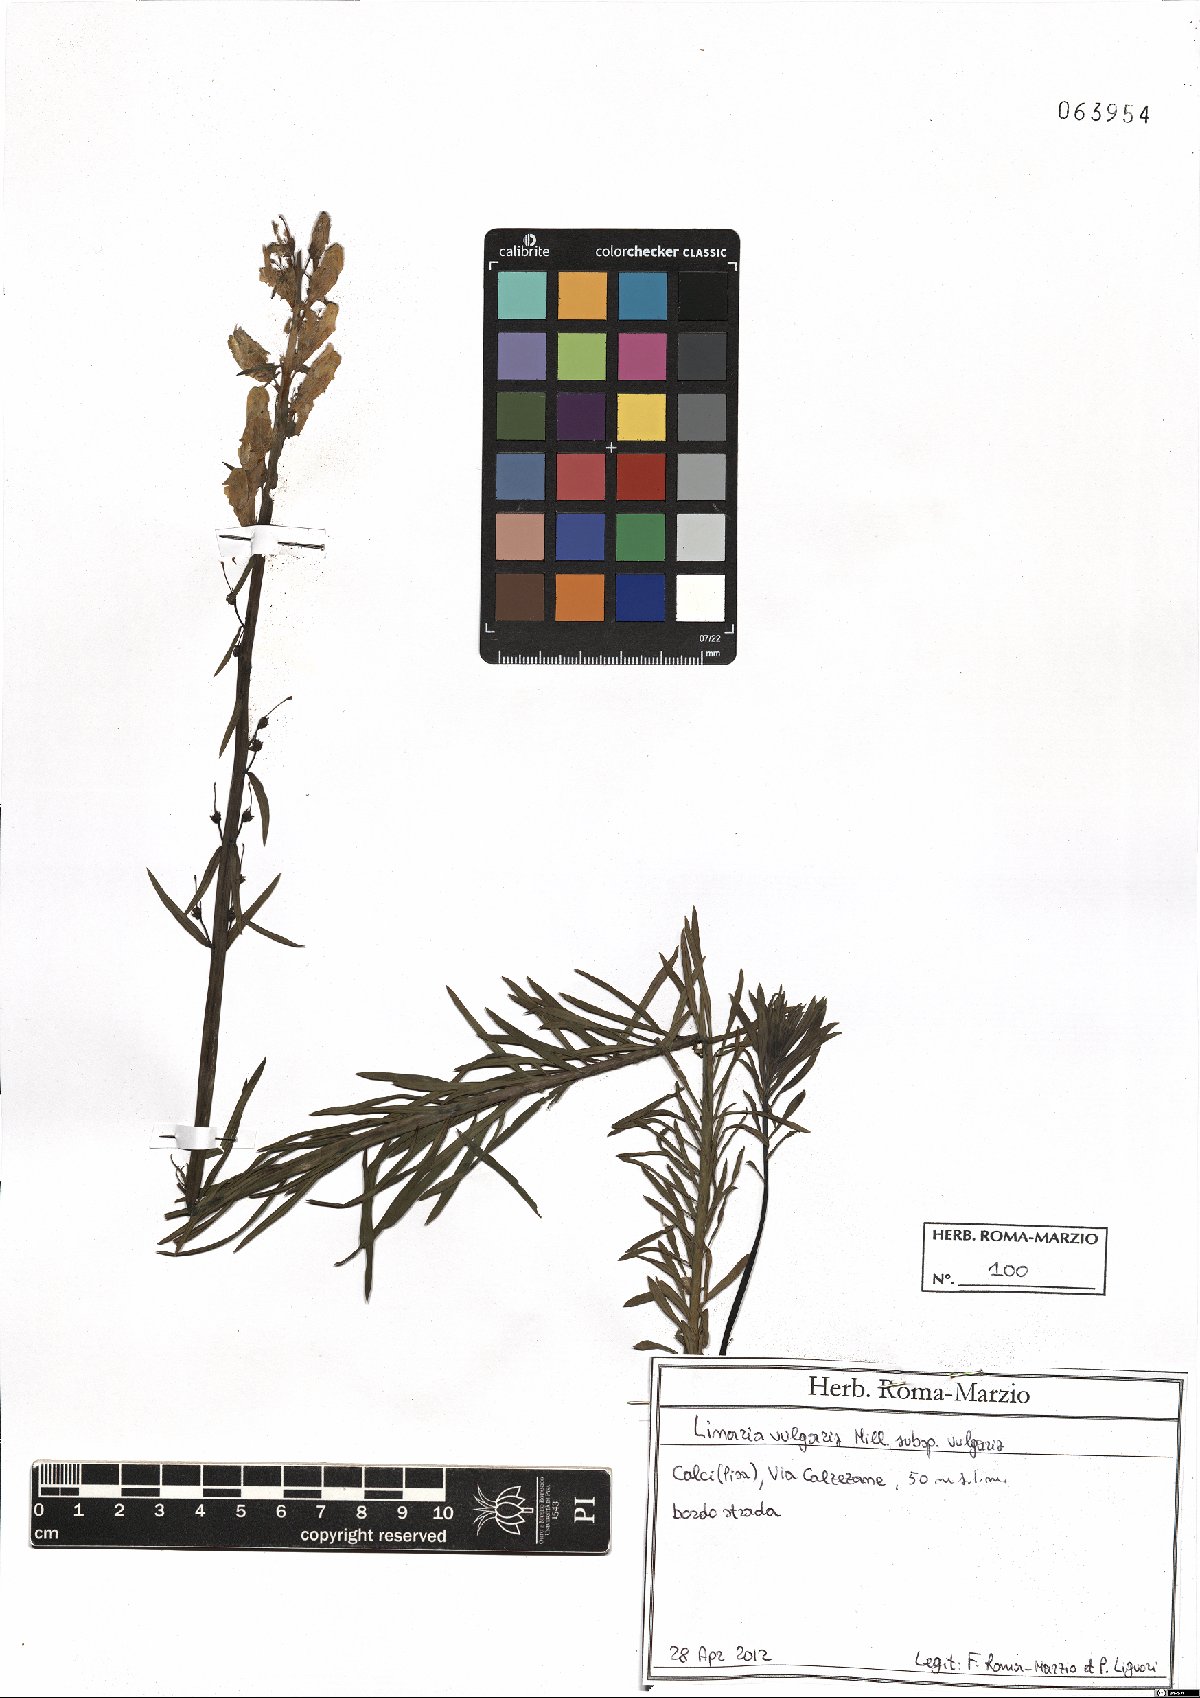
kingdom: Plantae
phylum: Tracheophyta
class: Magnoliopsida
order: Lamiales
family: Plantaginaceae
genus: Linaria
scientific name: Linaria vulgaris
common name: Butter and eggs
